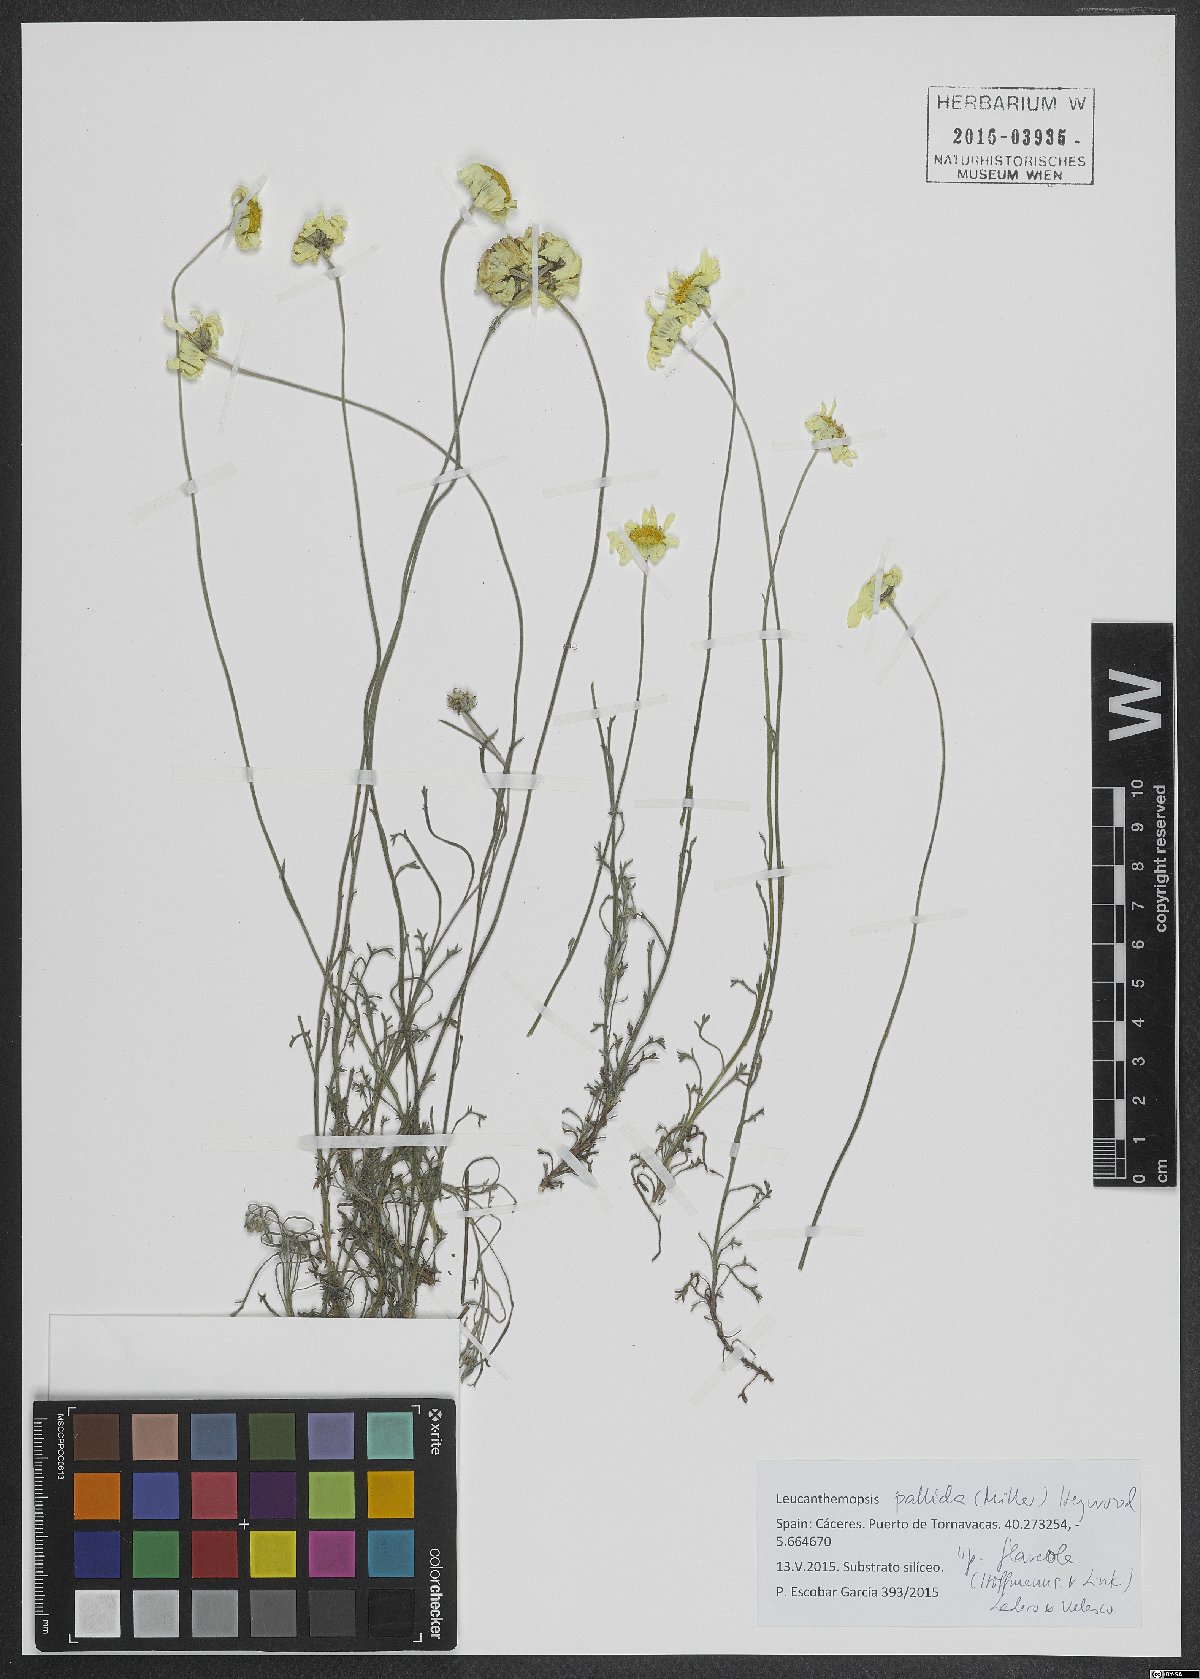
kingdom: Plantae
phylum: Tracheophyta
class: Magnoliopsida
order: Asterales
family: Asteraceae
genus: Leucanthemopsis
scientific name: Leucanthemopsis pallida
